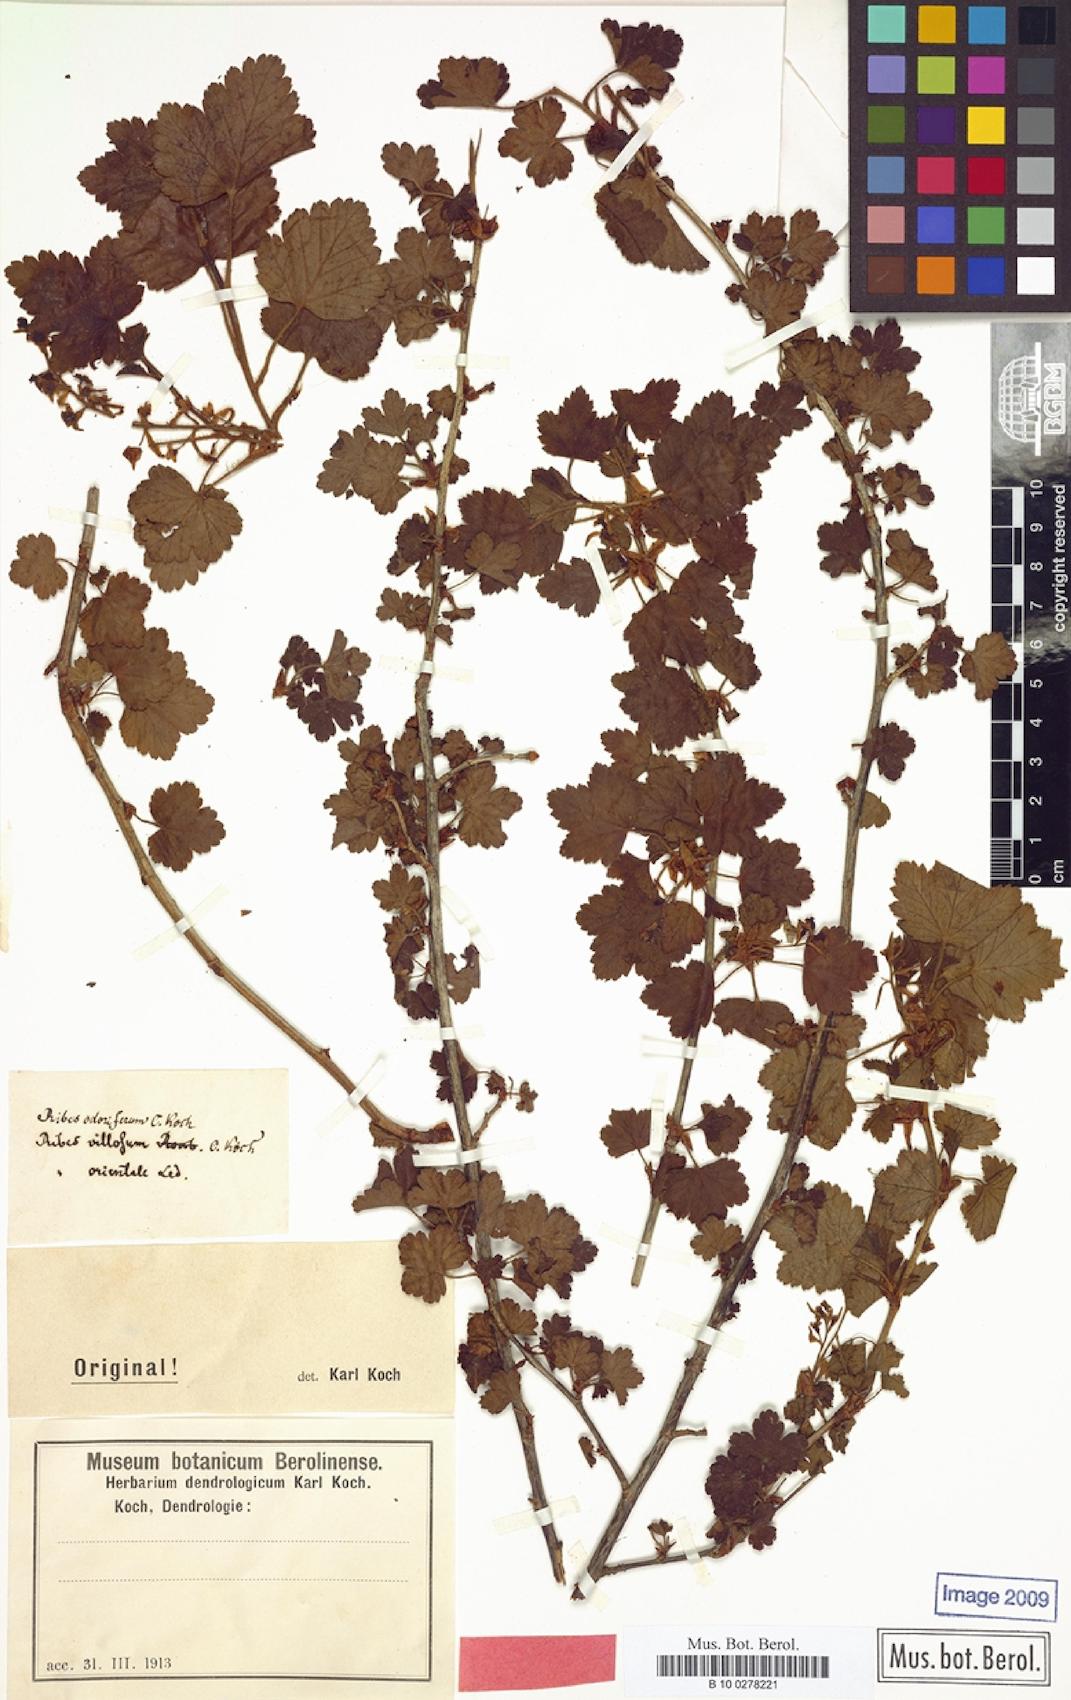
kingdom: Plantae
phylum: Tracheophyta
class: Magnoliopsida
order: Saxifragales
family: Grossulariaceae
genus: Ribes
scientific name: Ribes orientale
